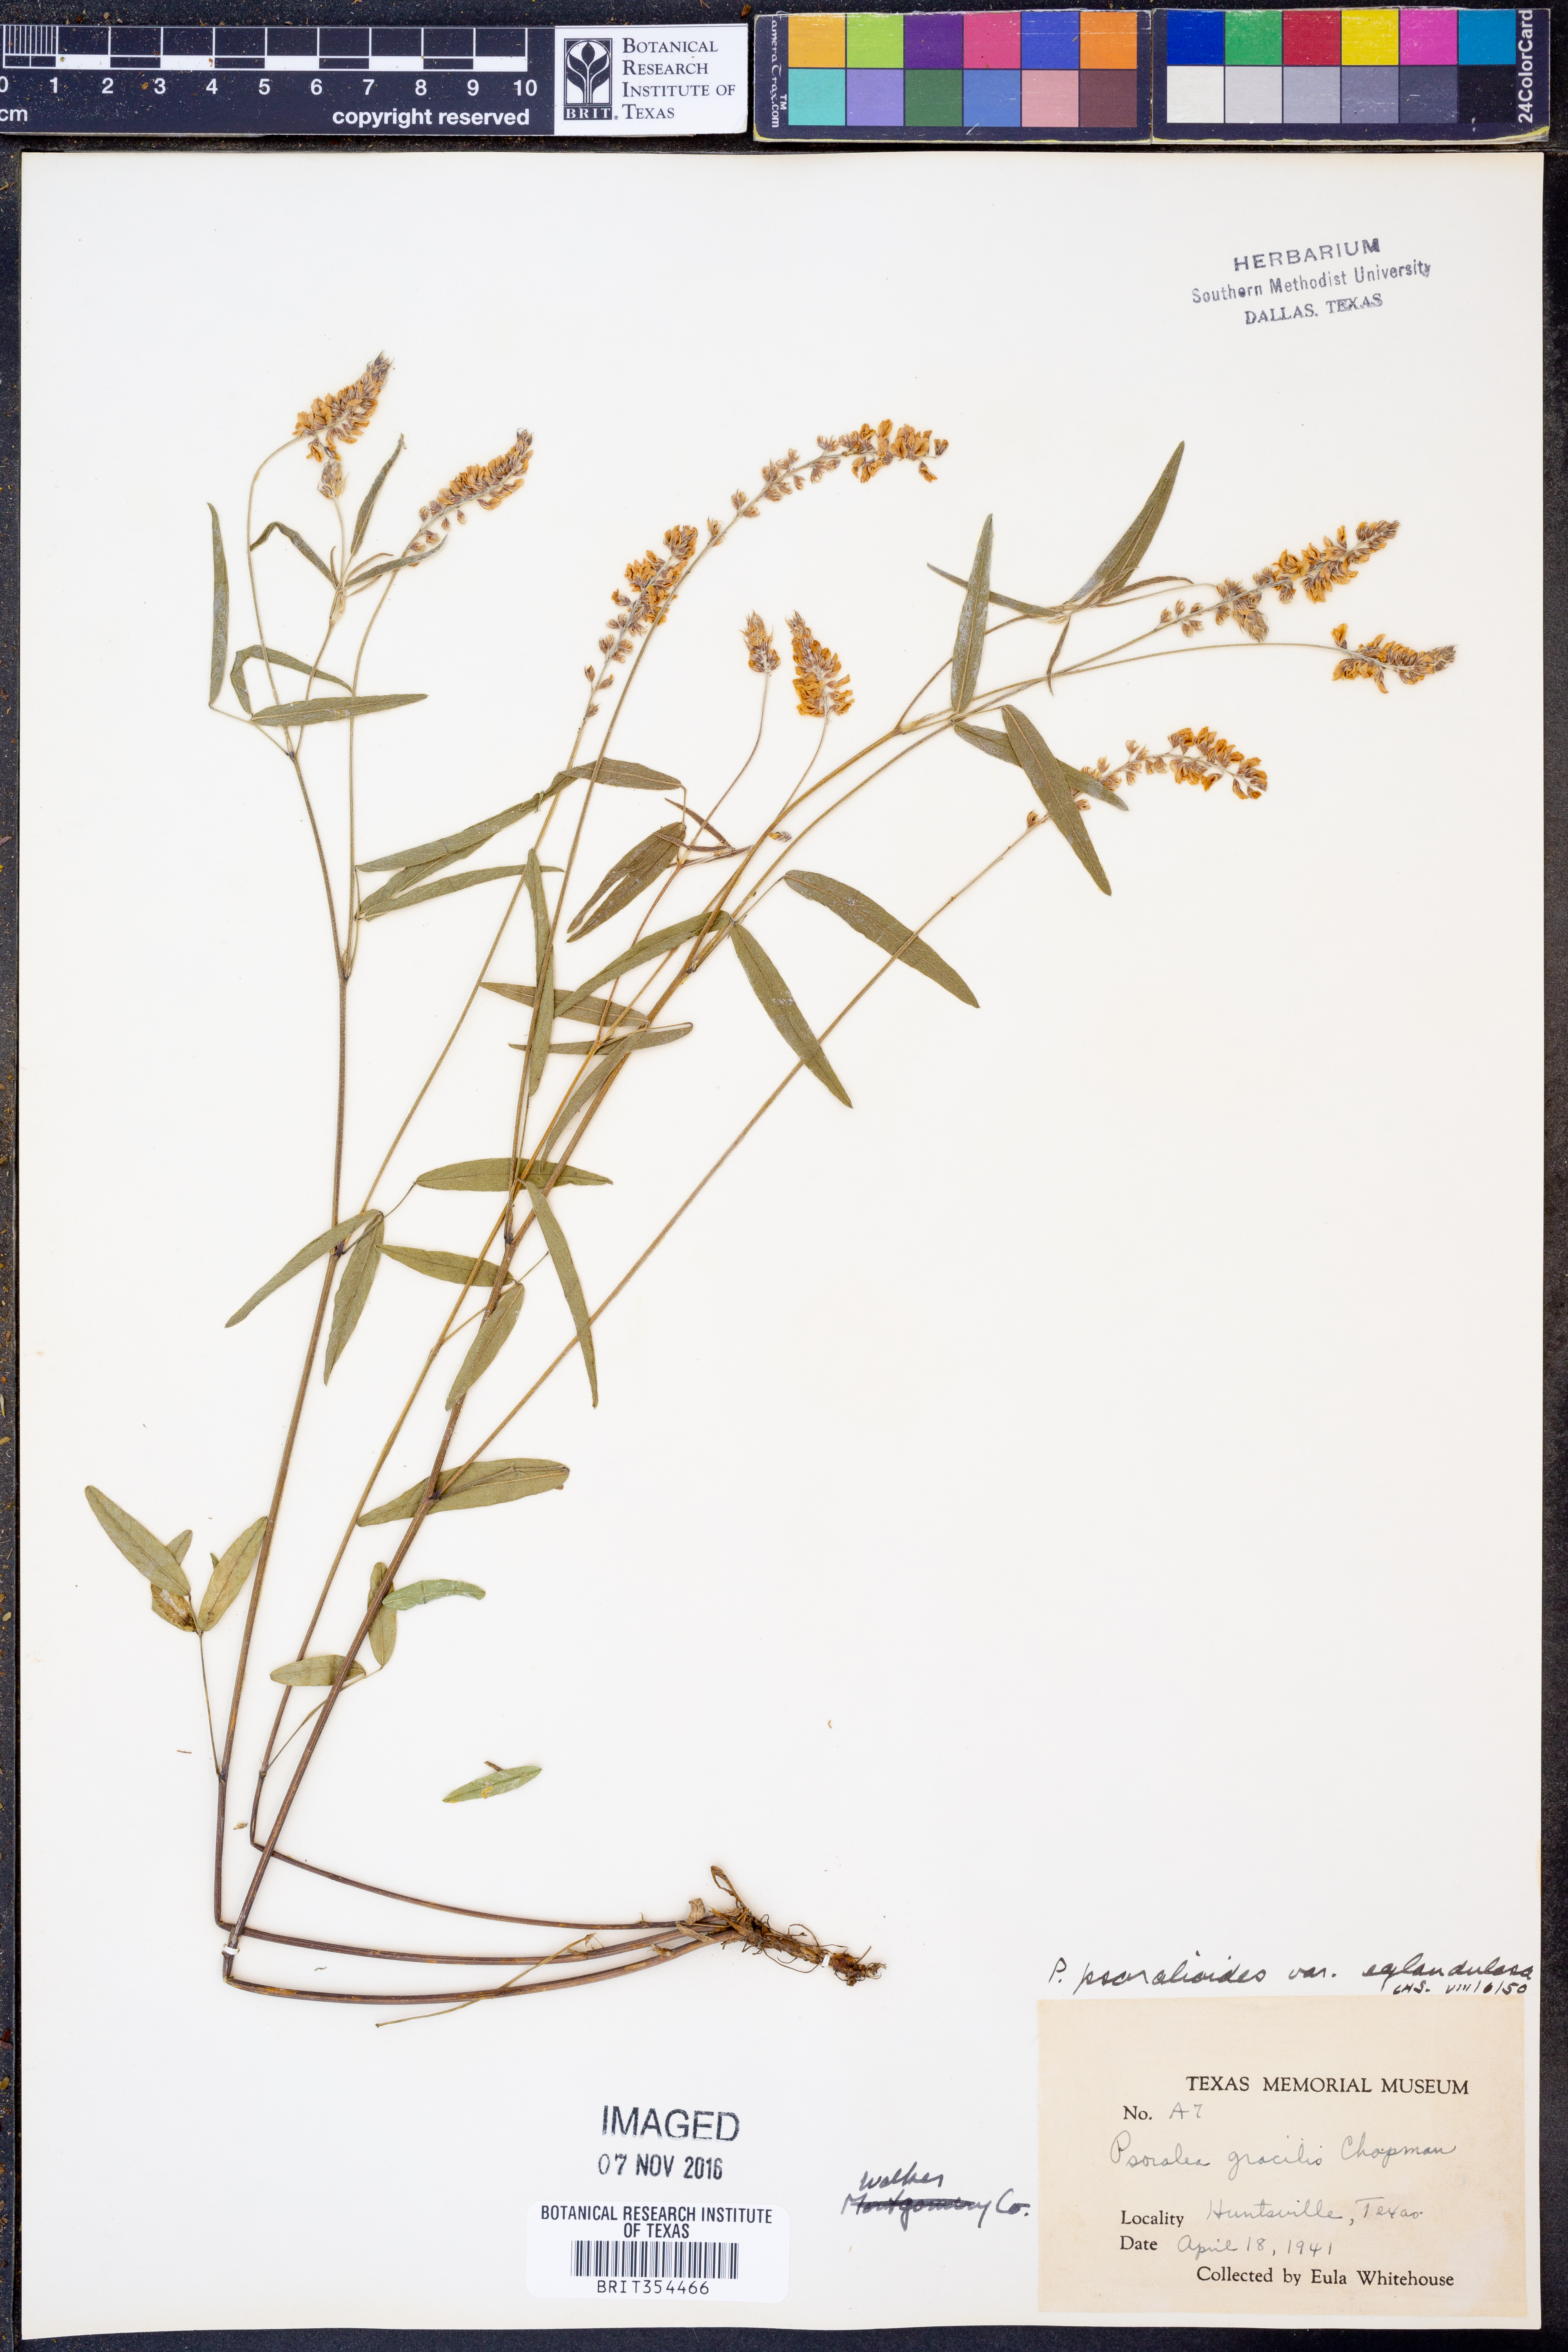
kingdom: Plantae
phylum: Tracheophyta
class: Magnoliopsida
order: Fabales
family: Fabaceae
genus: Orbexilum
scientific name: Orbexilum pedunculatum
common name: Sampson's snakeroot
